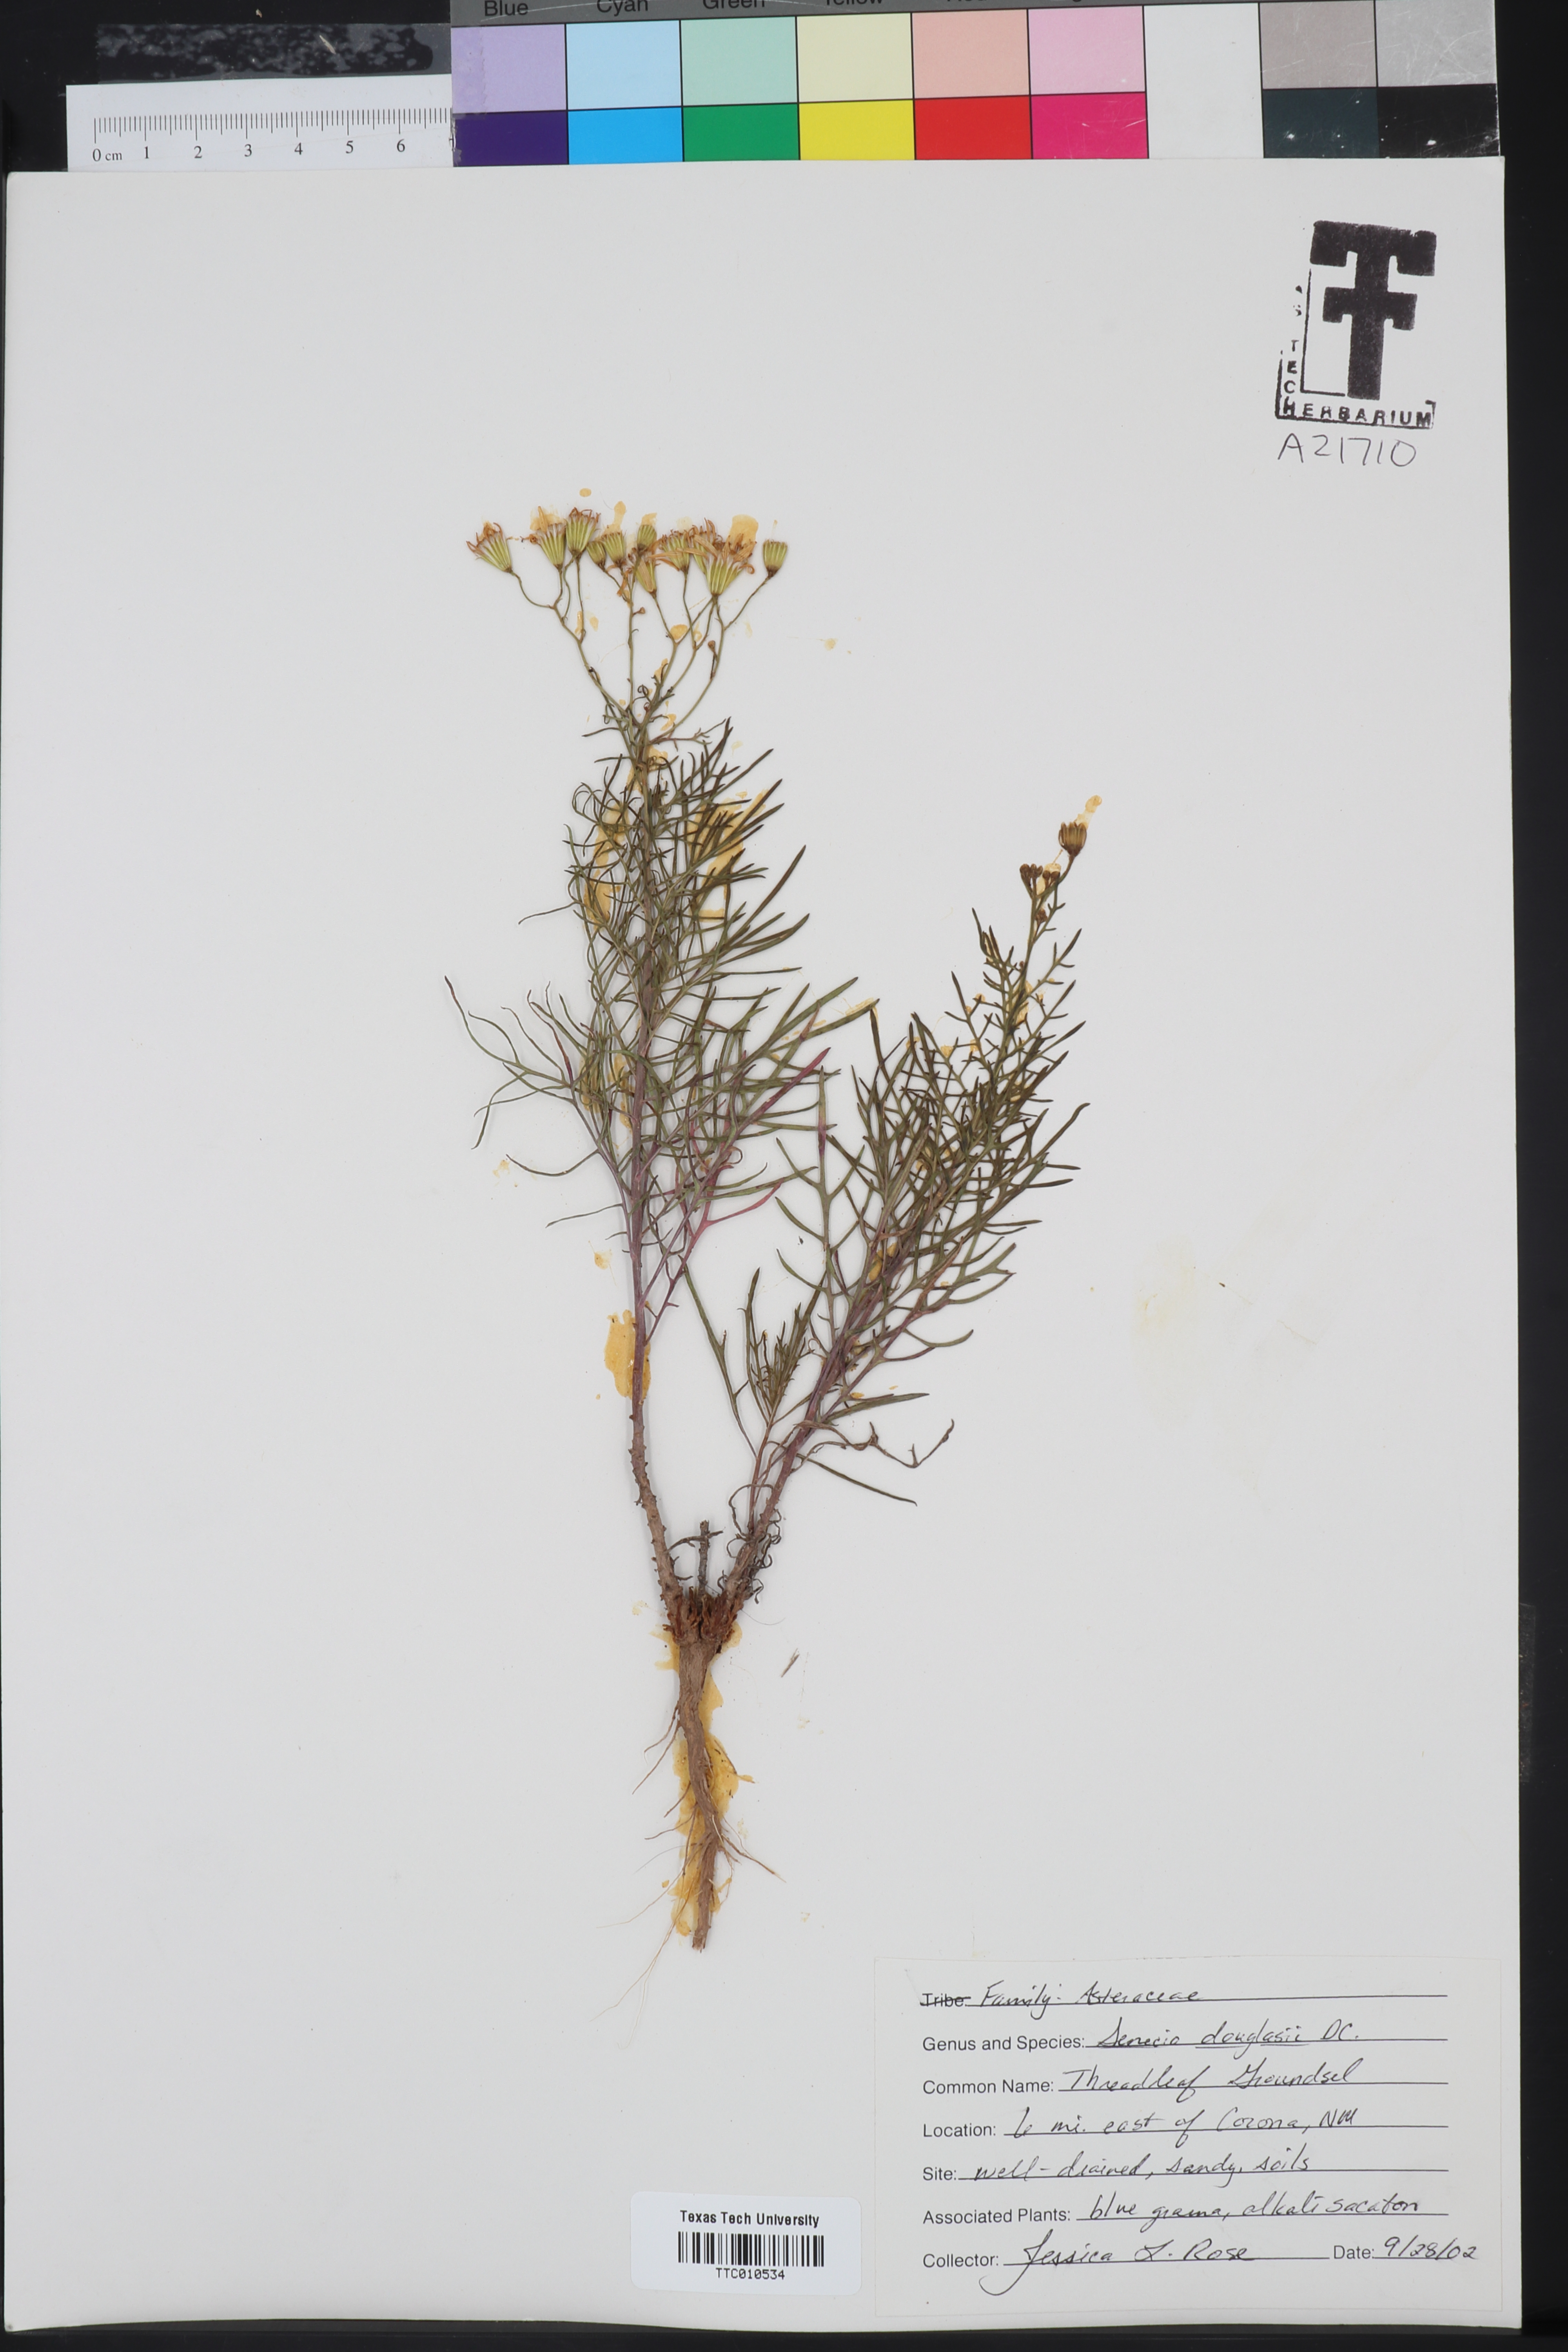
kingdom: Plantae
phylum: Tracheophyta
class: Magnoliopsida
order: Asterales
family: Asteraceae
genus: Senecio
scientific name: Senecio flaccidus
